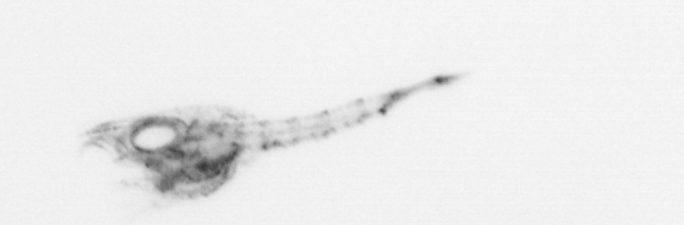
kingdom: Animalia
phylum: Arthropoda
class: Malacostraca
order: Decapoda
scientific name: Decapoda
